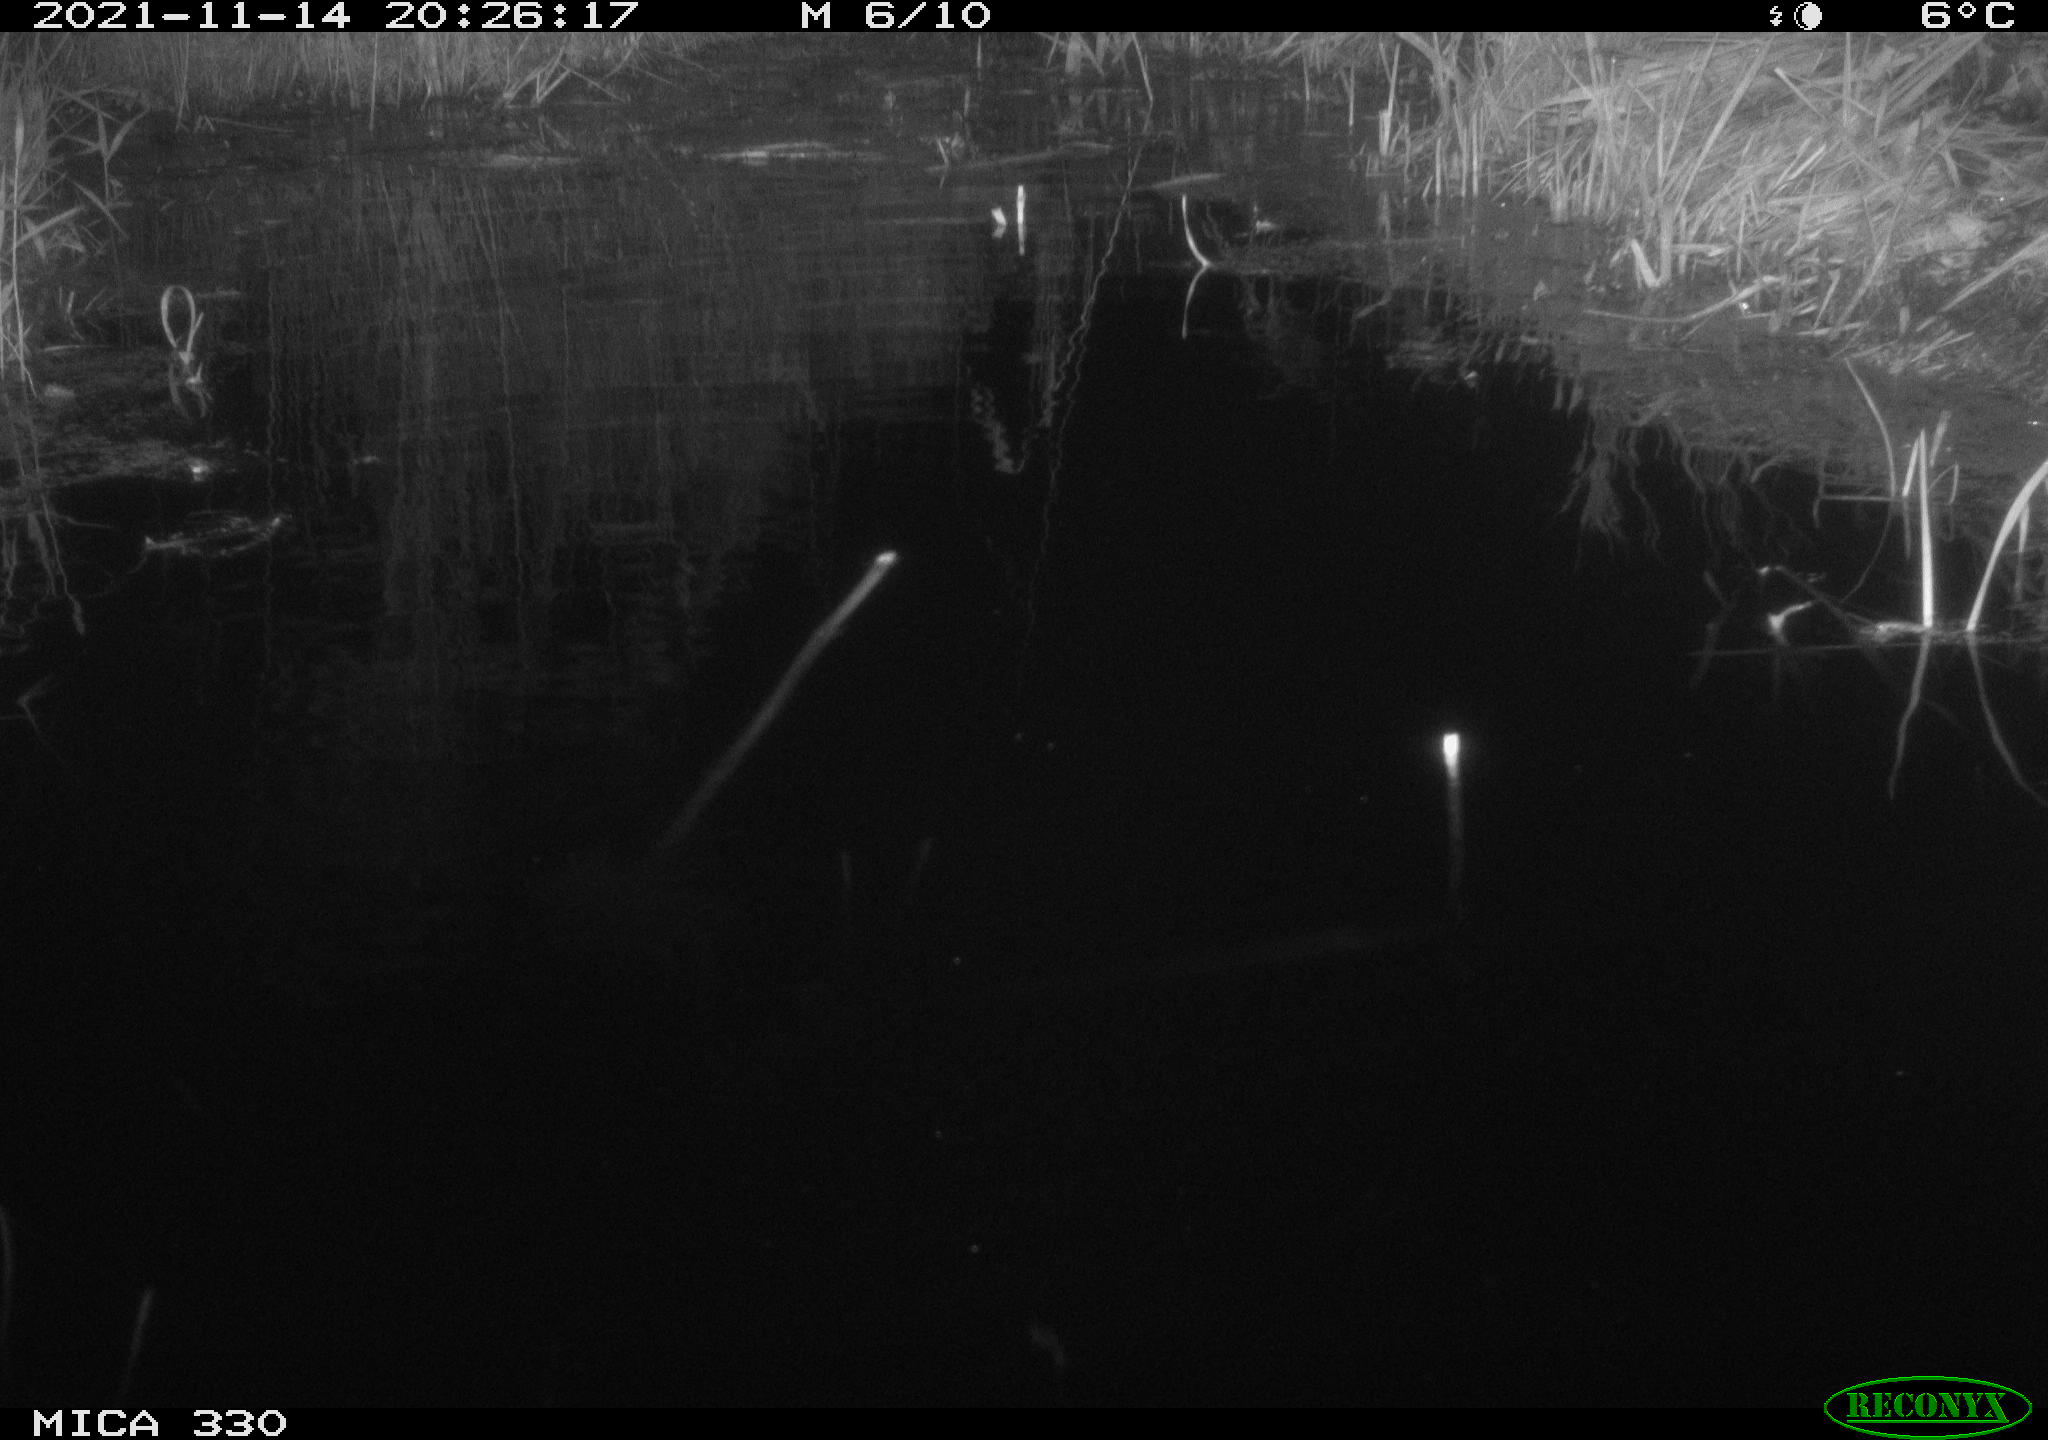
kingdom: Animalia
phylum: Chordata
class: Aves
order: Gruiformes
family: Rallidae
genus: Gallinula
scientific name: Gallinula chloropus
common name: Common moorhen
